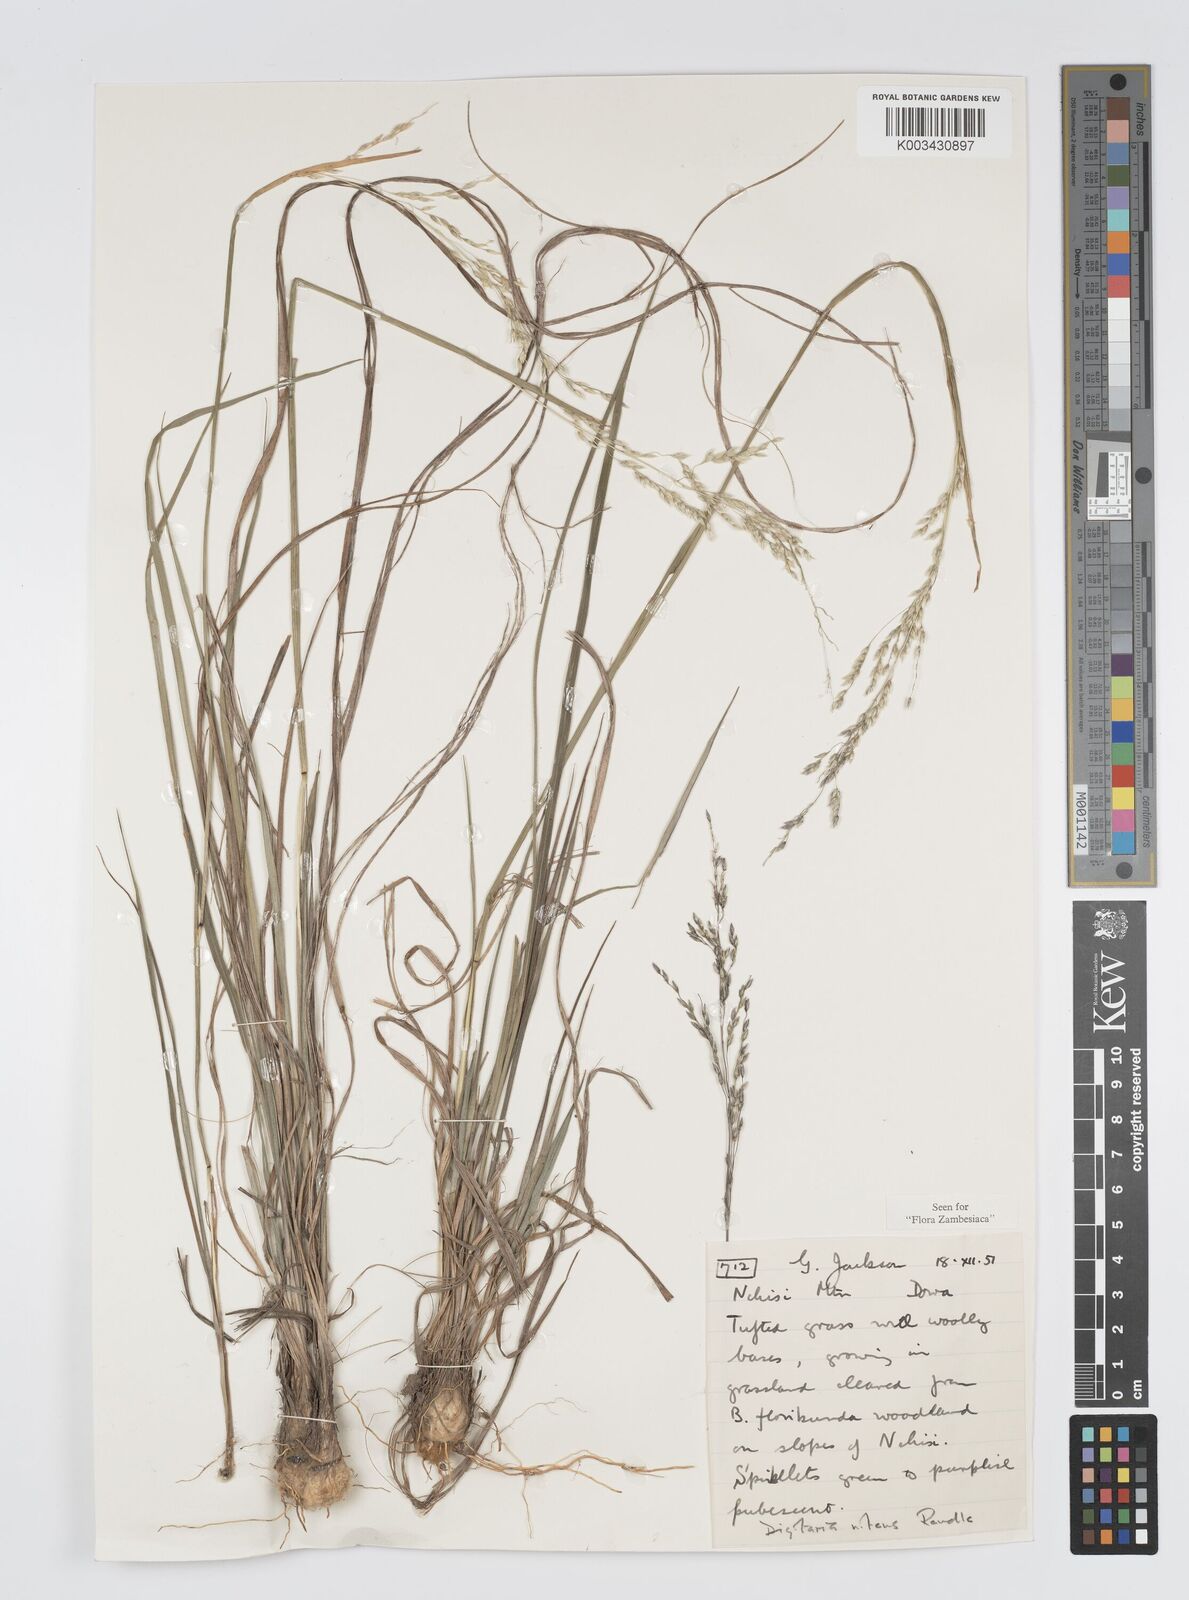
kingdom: Plantae
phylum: Tracheophyta
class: Liliopsida
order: Poales
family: Poaceae
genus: Digitaria
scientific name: Digitaria flaccida
